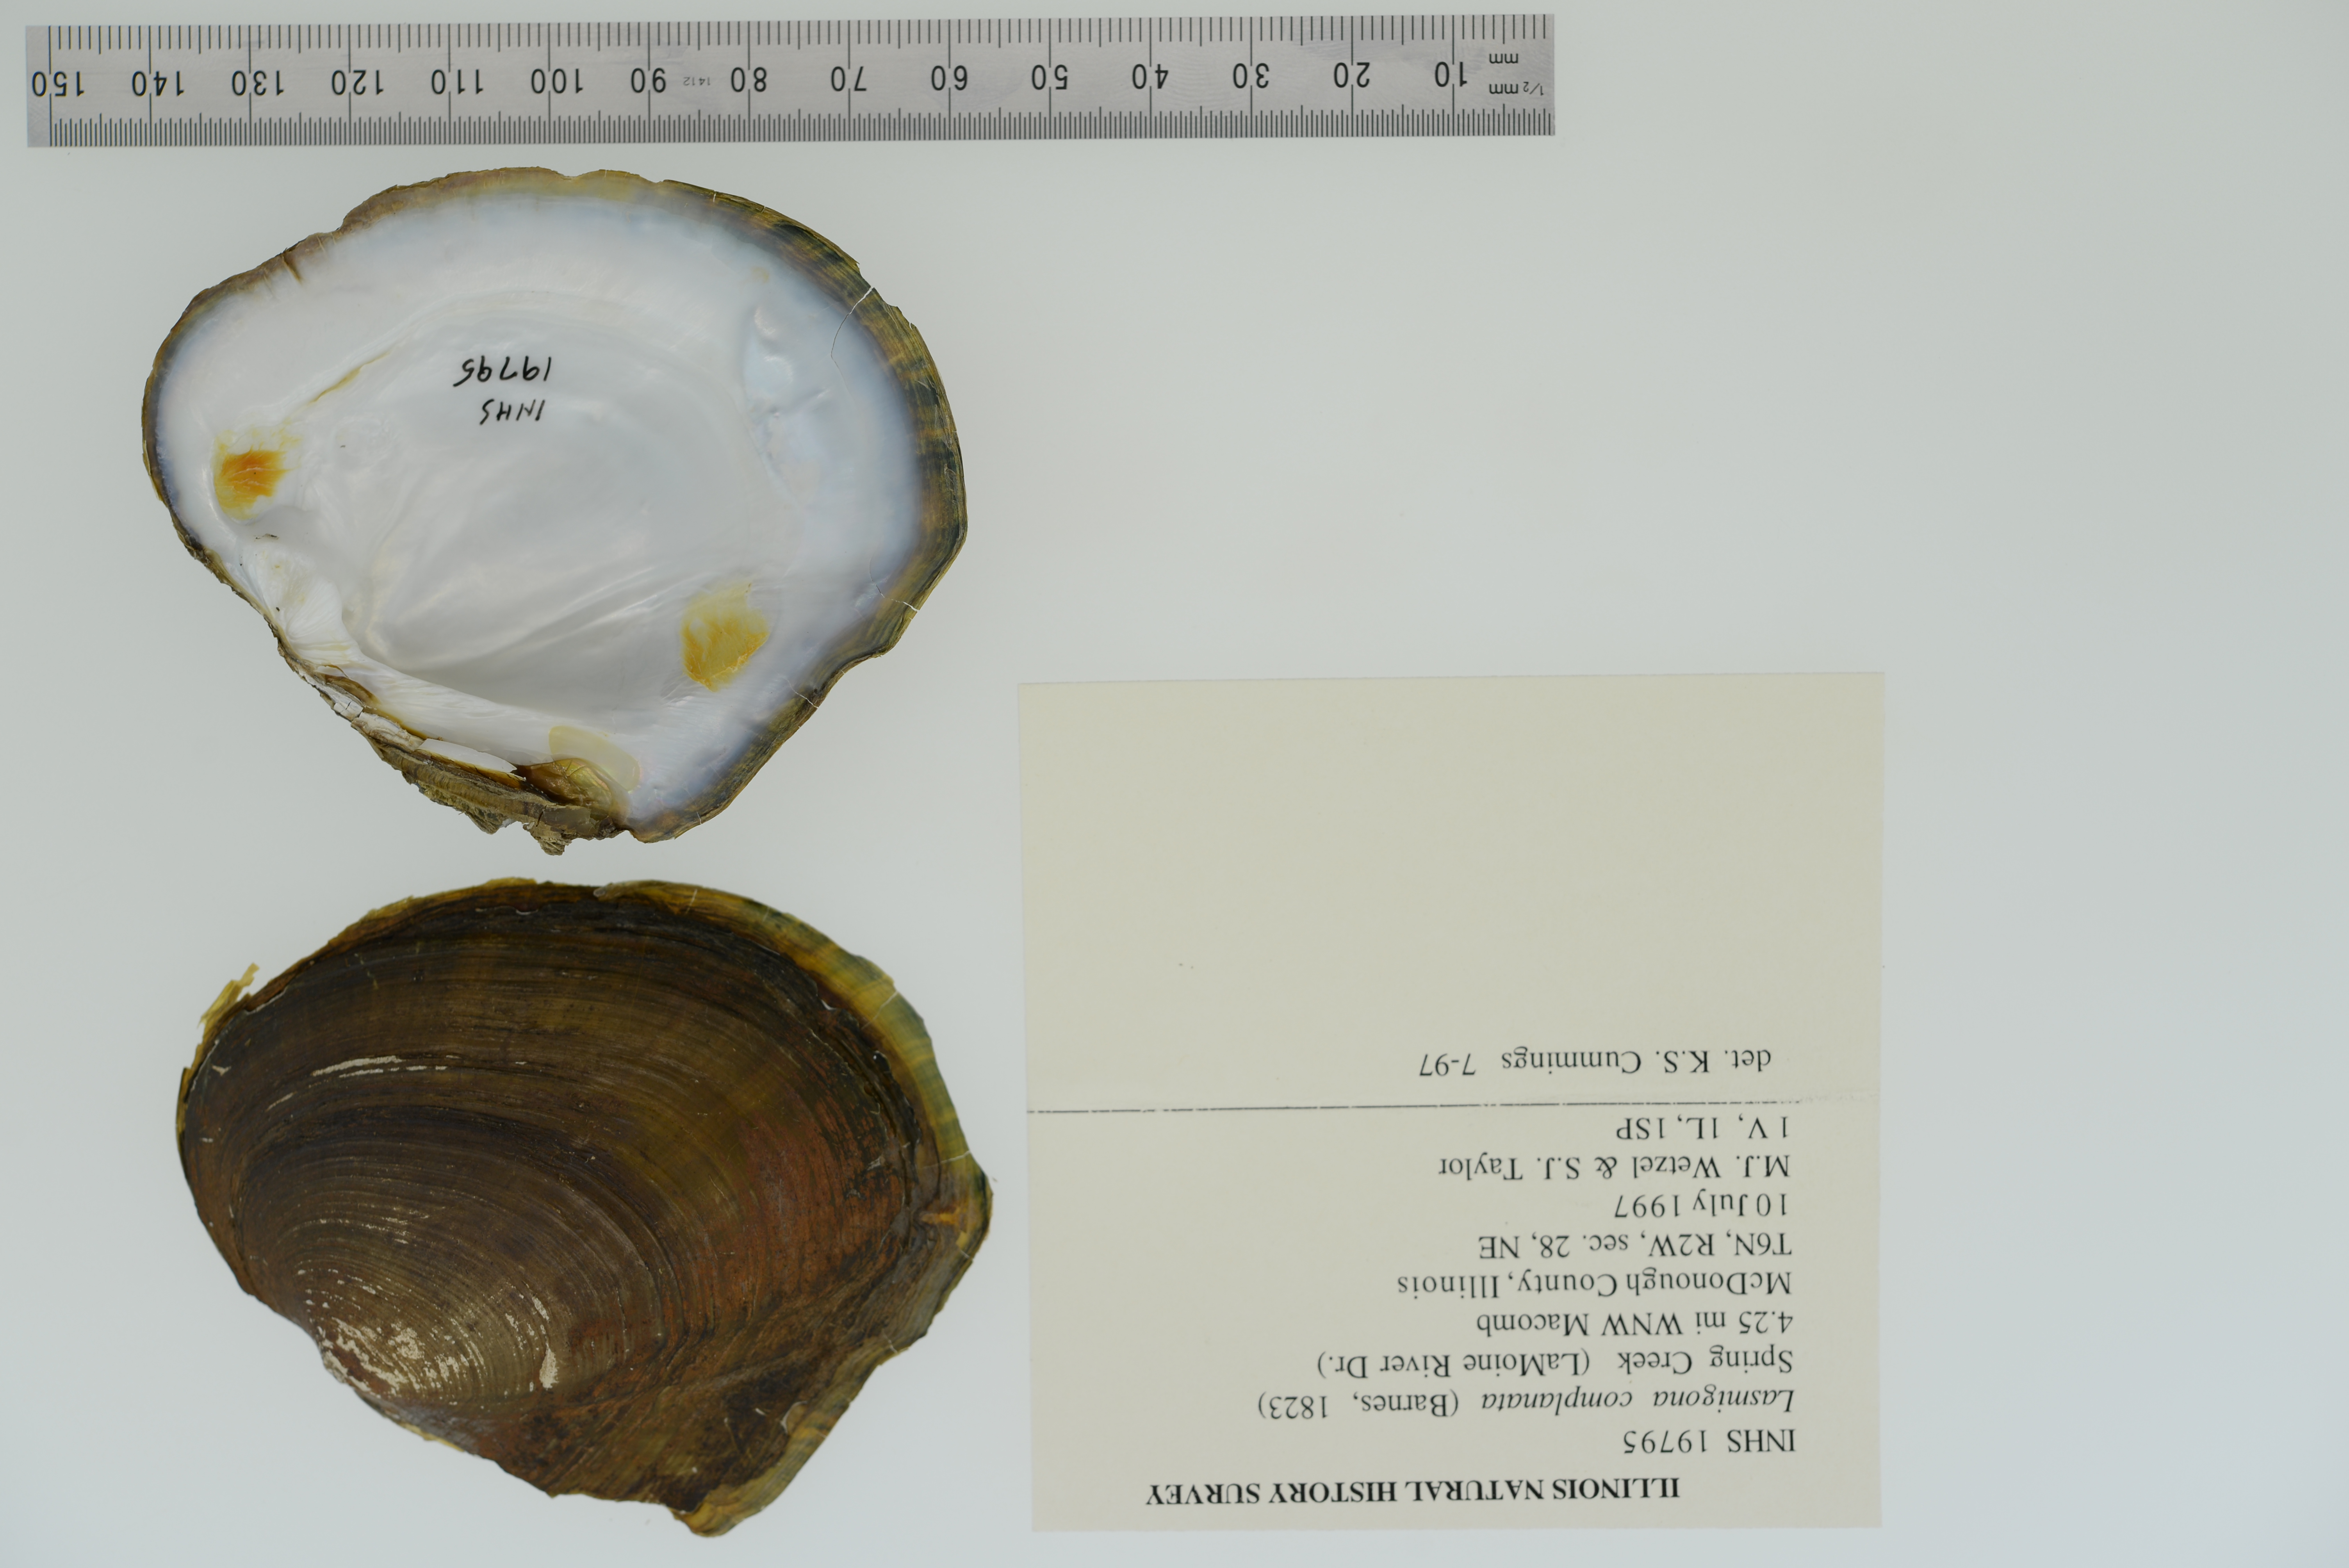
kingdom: Animalia
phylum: Mollusca
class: Bivalvia
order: Unionida
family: Unionidae
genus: Lasmigona
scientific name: Lasmigona complanata
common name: White heelsplitter
